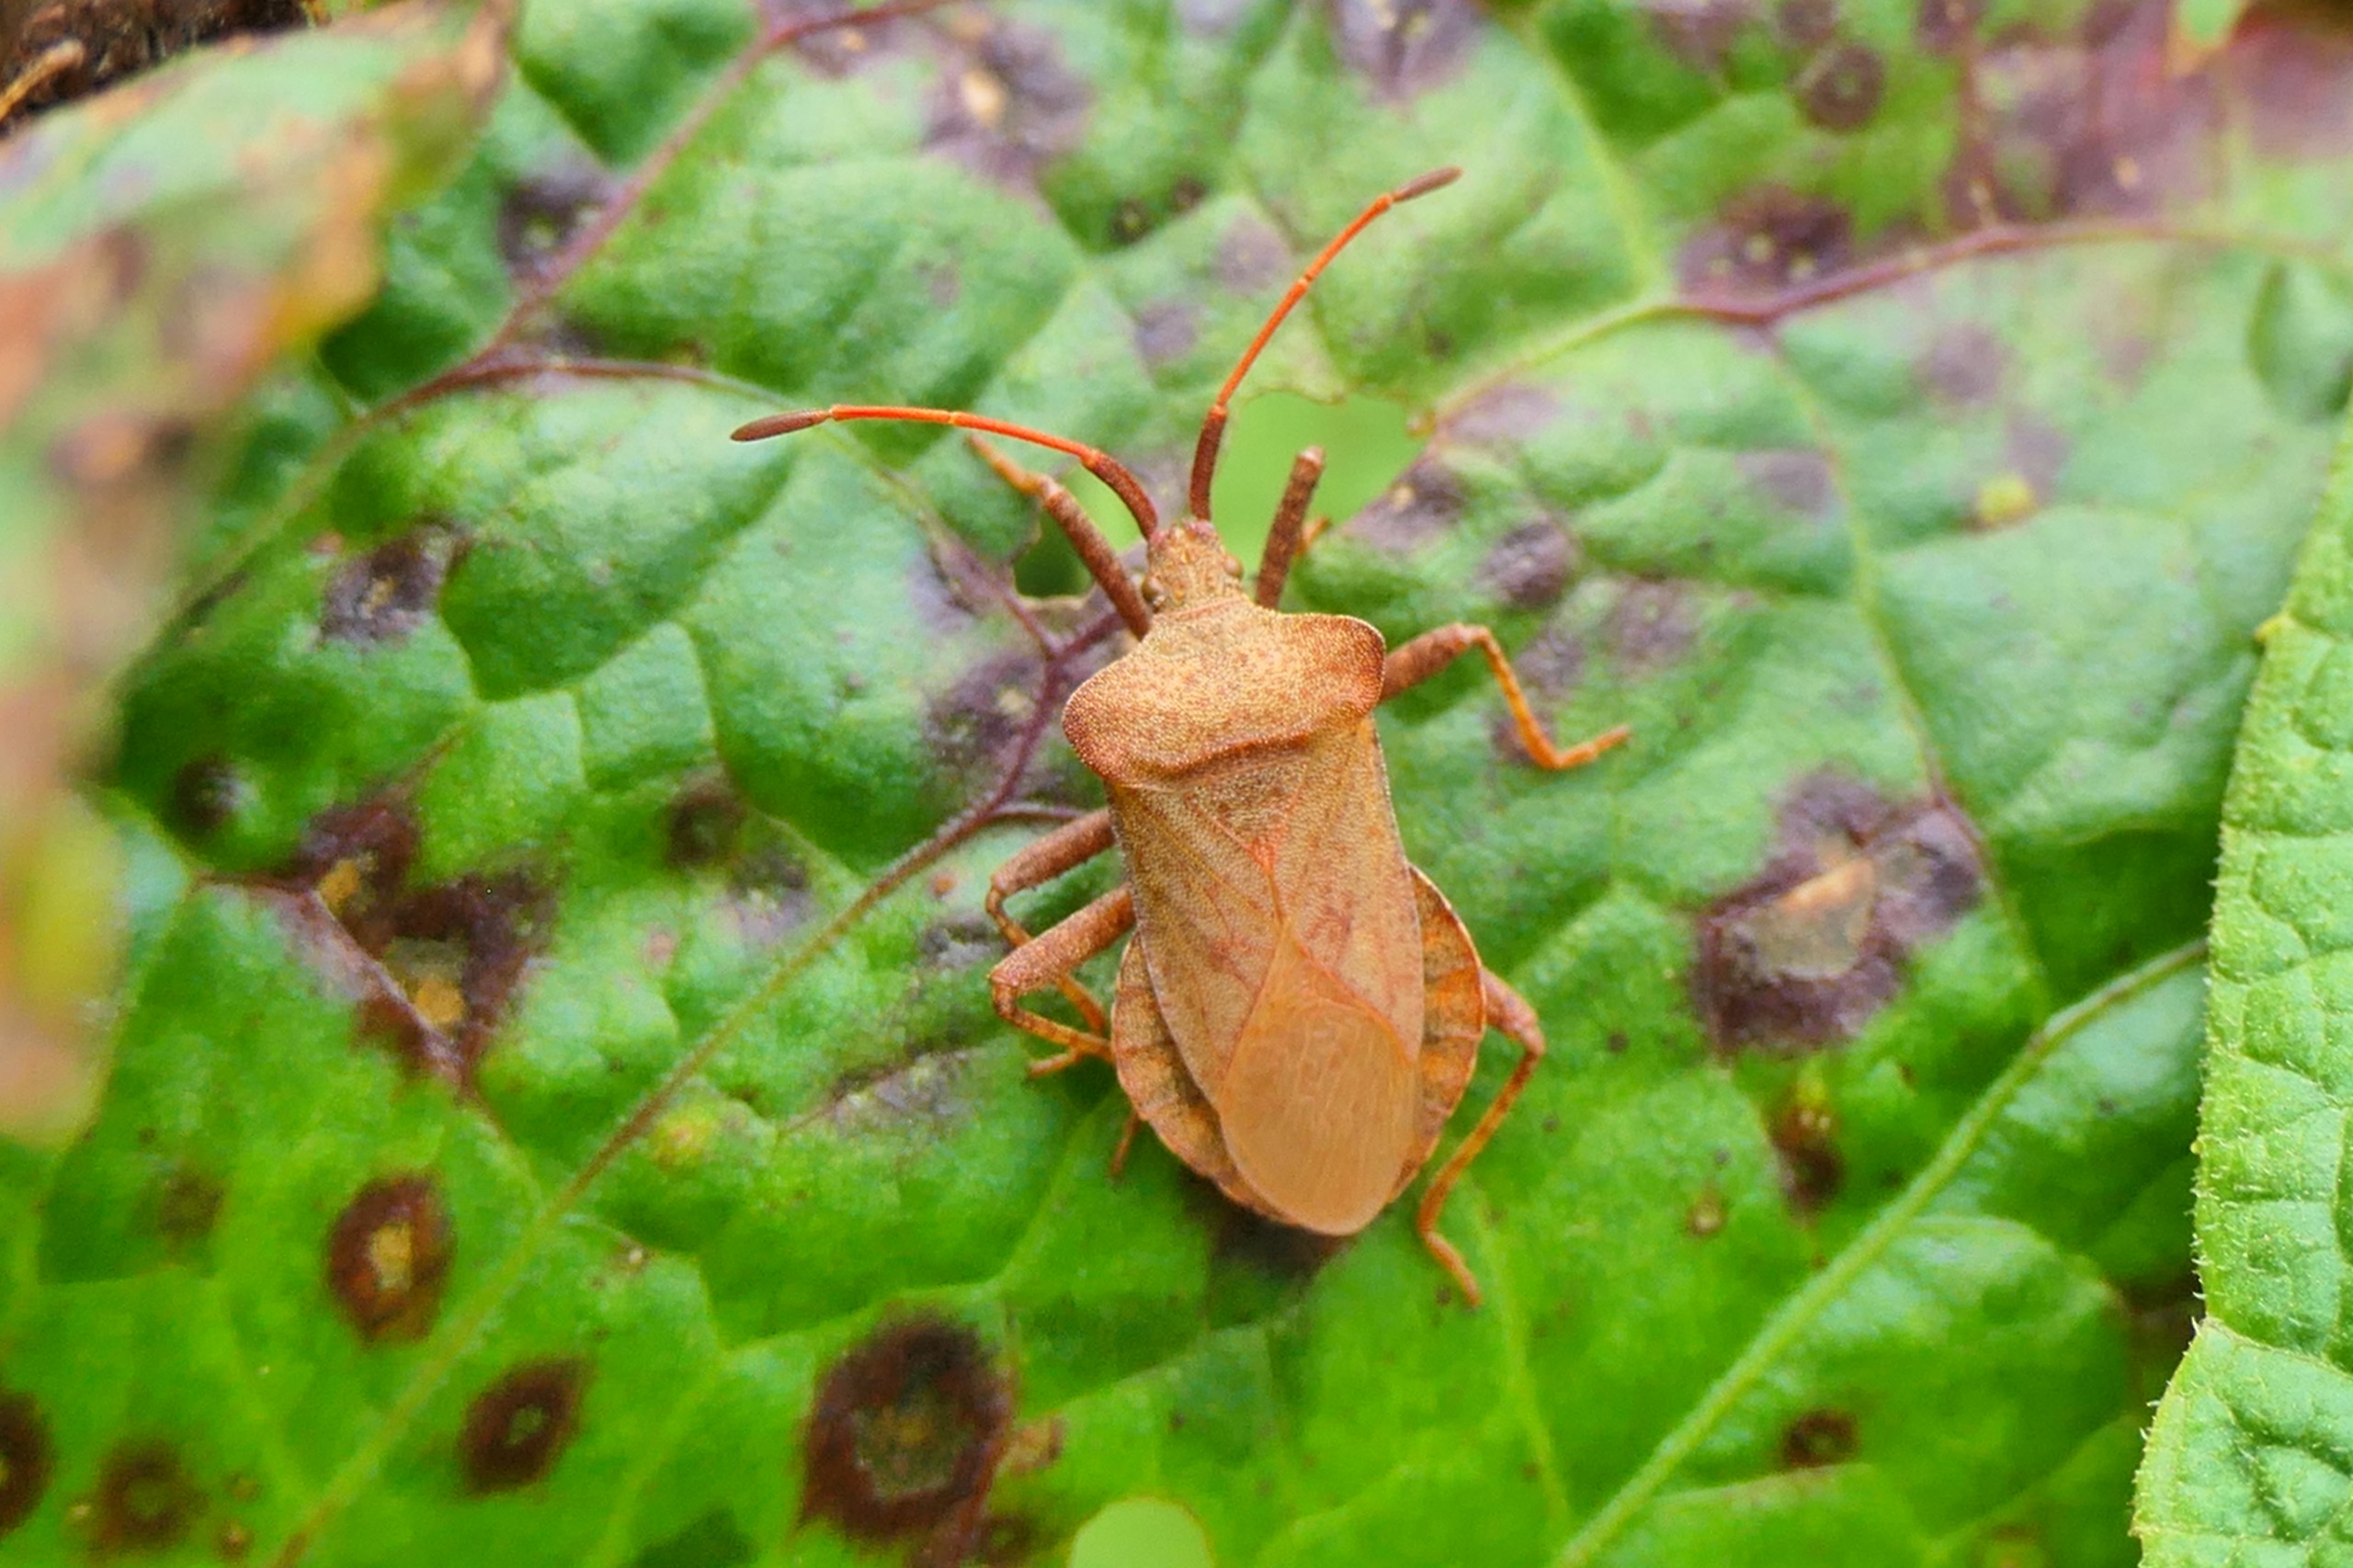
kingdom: Animalia
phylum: Arthropoda
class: Insecta
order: Hemiptera
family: Coreidae
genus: Coreus
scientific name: Coreus marginatus
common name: Skræppetæge
